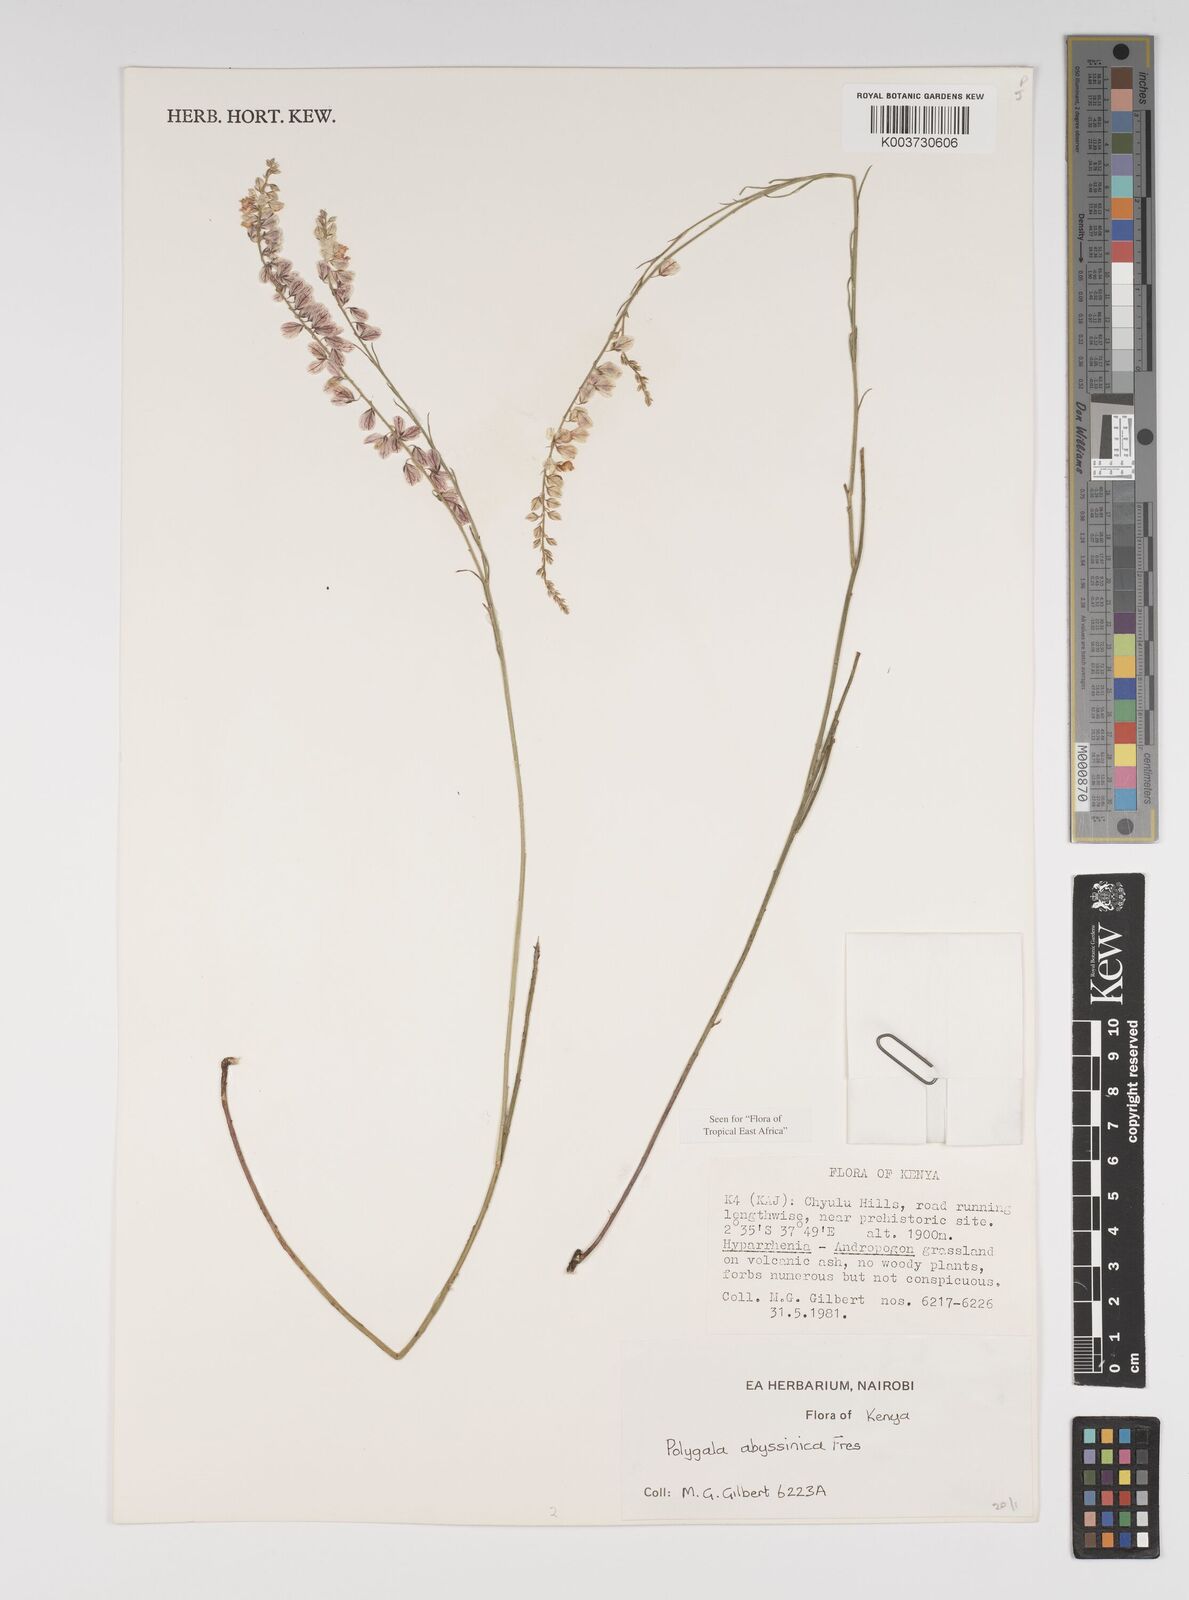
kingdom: Plantae
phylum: Tracheophyta
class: Magnoliopsida
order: Fabales
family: Polygalaceae
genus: Polygala
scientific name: Polygala abyssinica
